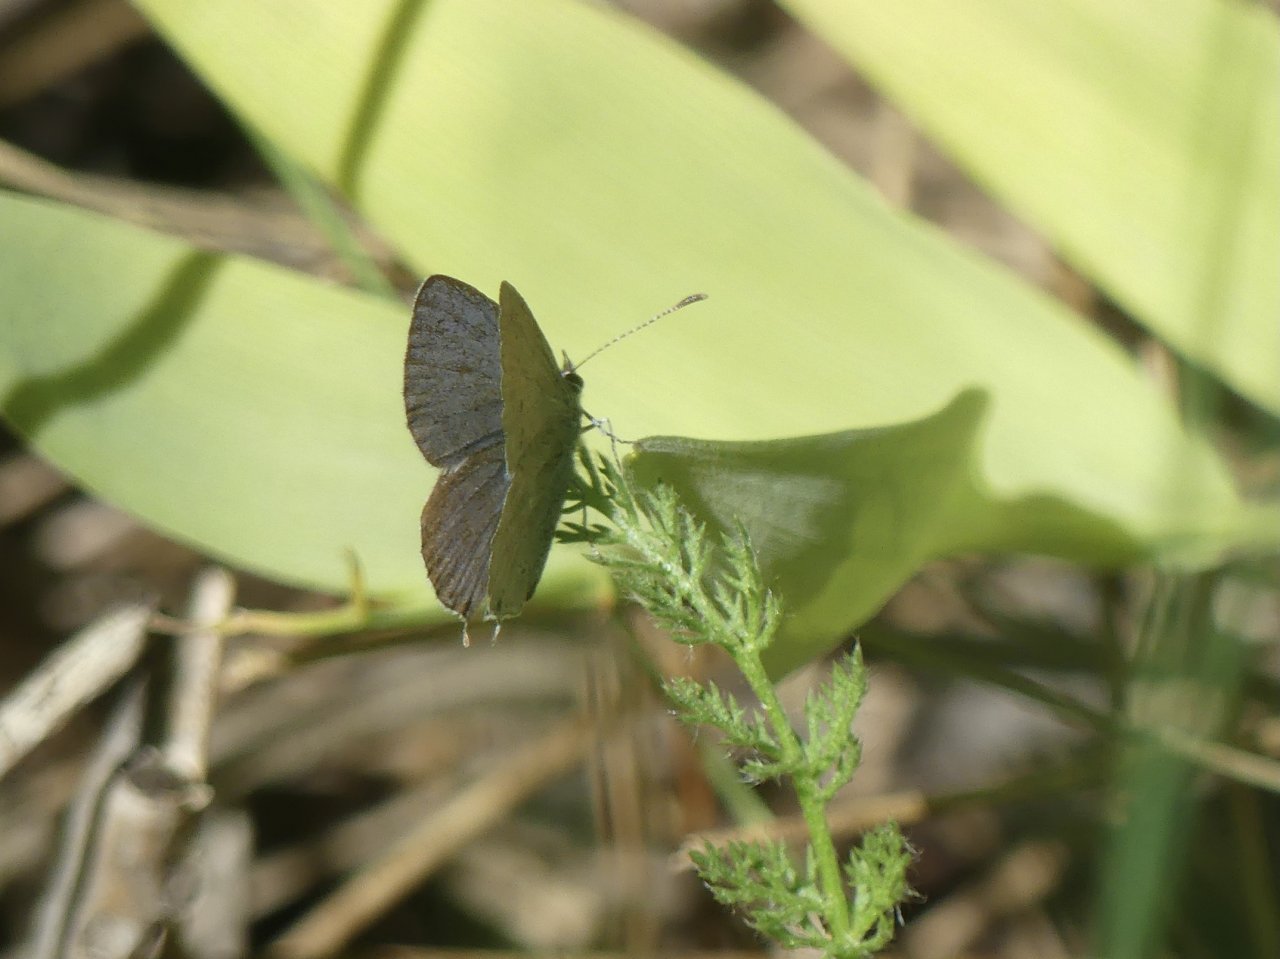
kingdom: Animalia
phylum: Arthropoda
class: Insecta
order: Lepidoptera
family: Lycaenidae
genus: Elkalyce
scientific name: Elkalyce amyntula
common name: Western Tailed-Blue
